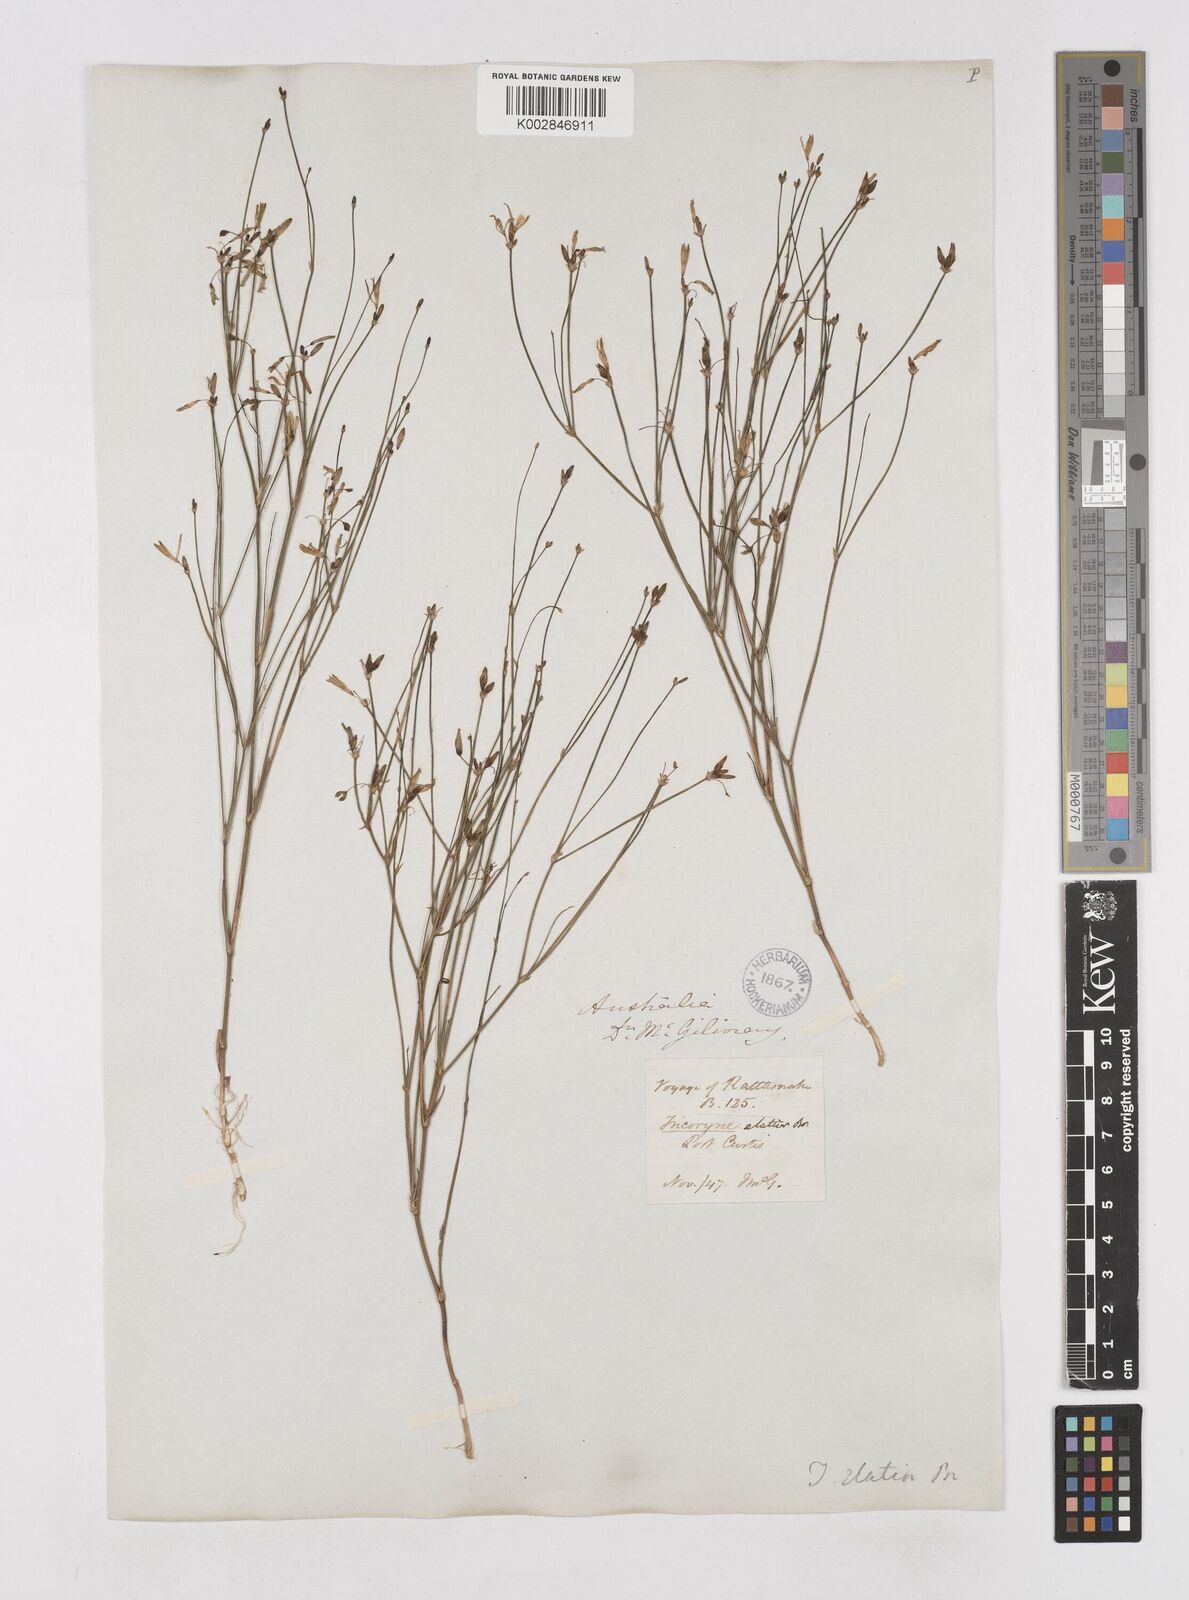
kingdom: Plantae
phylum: Tracheophyta
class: Liliopsida
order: Asparagales
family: Asphodelaceae
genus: Tricoryne
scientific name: Tricoryne elatior
